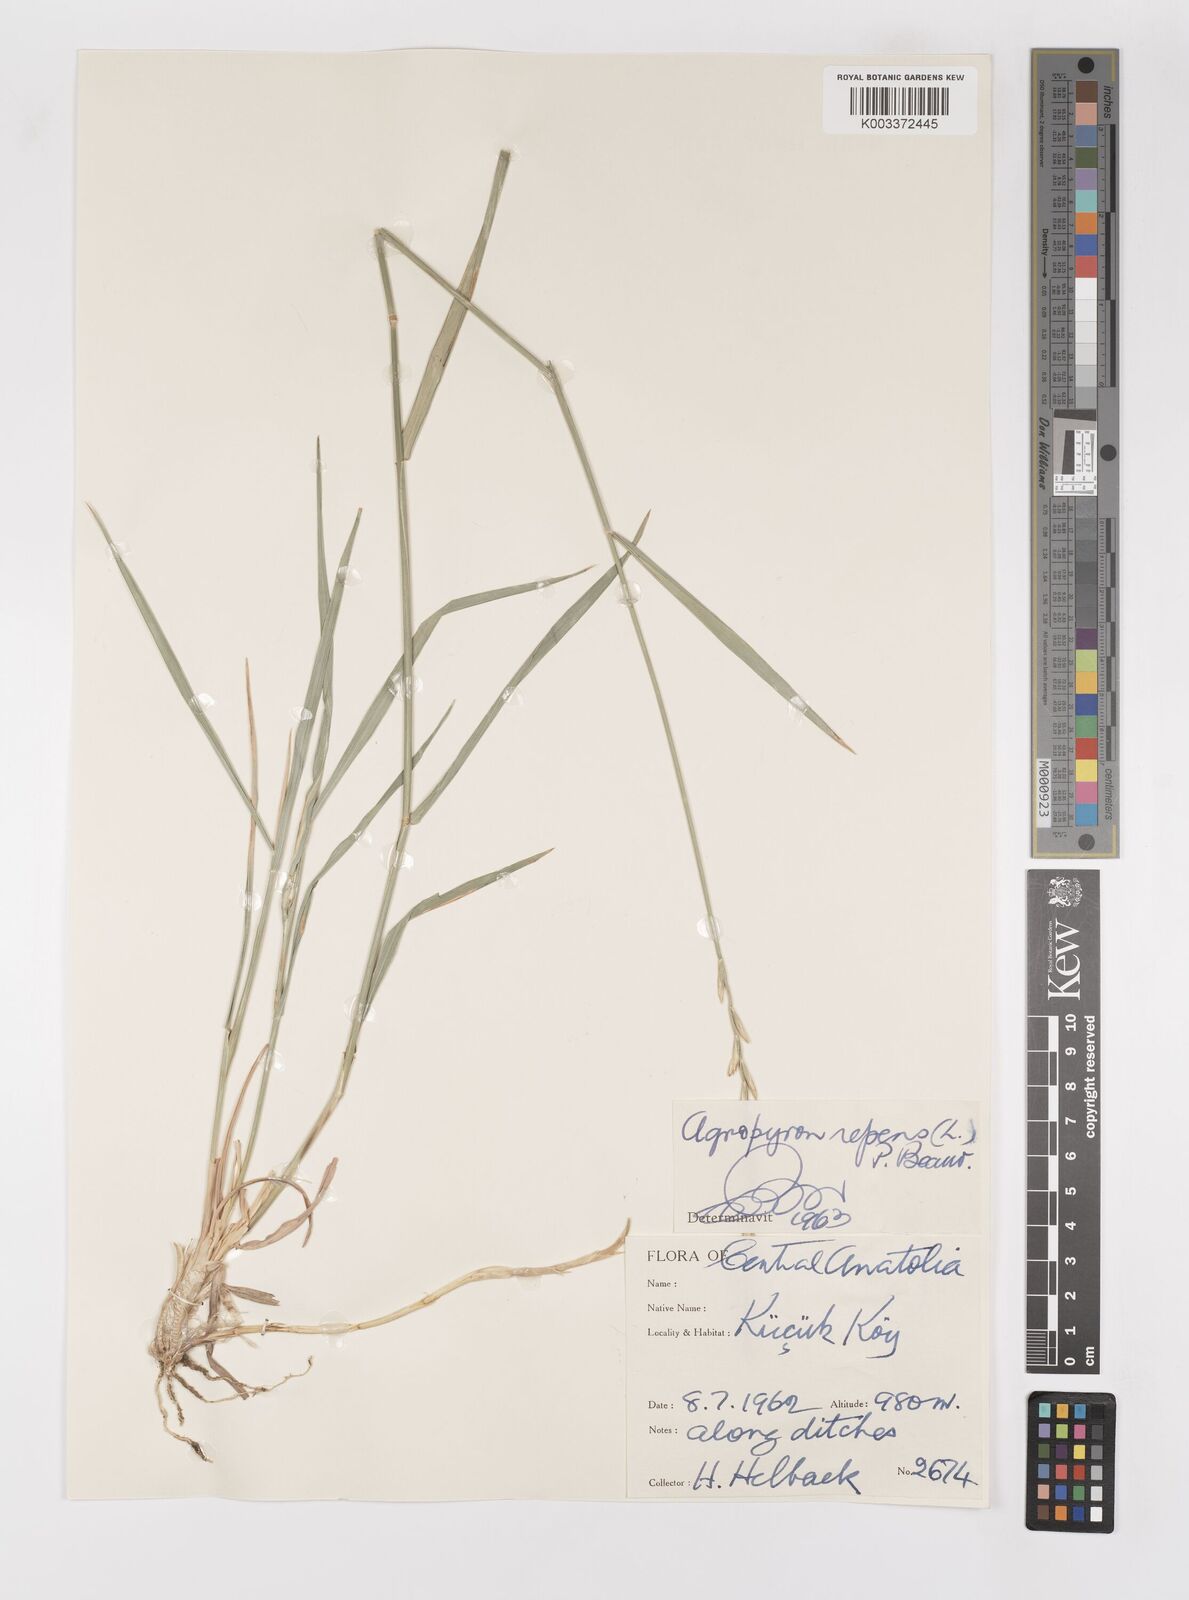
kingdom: Plantae
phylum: Tracheophyta
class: Liliopsida
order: Poales
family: Poaceae
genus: Elymus
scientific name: Elymus repens
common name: Quackgrass
